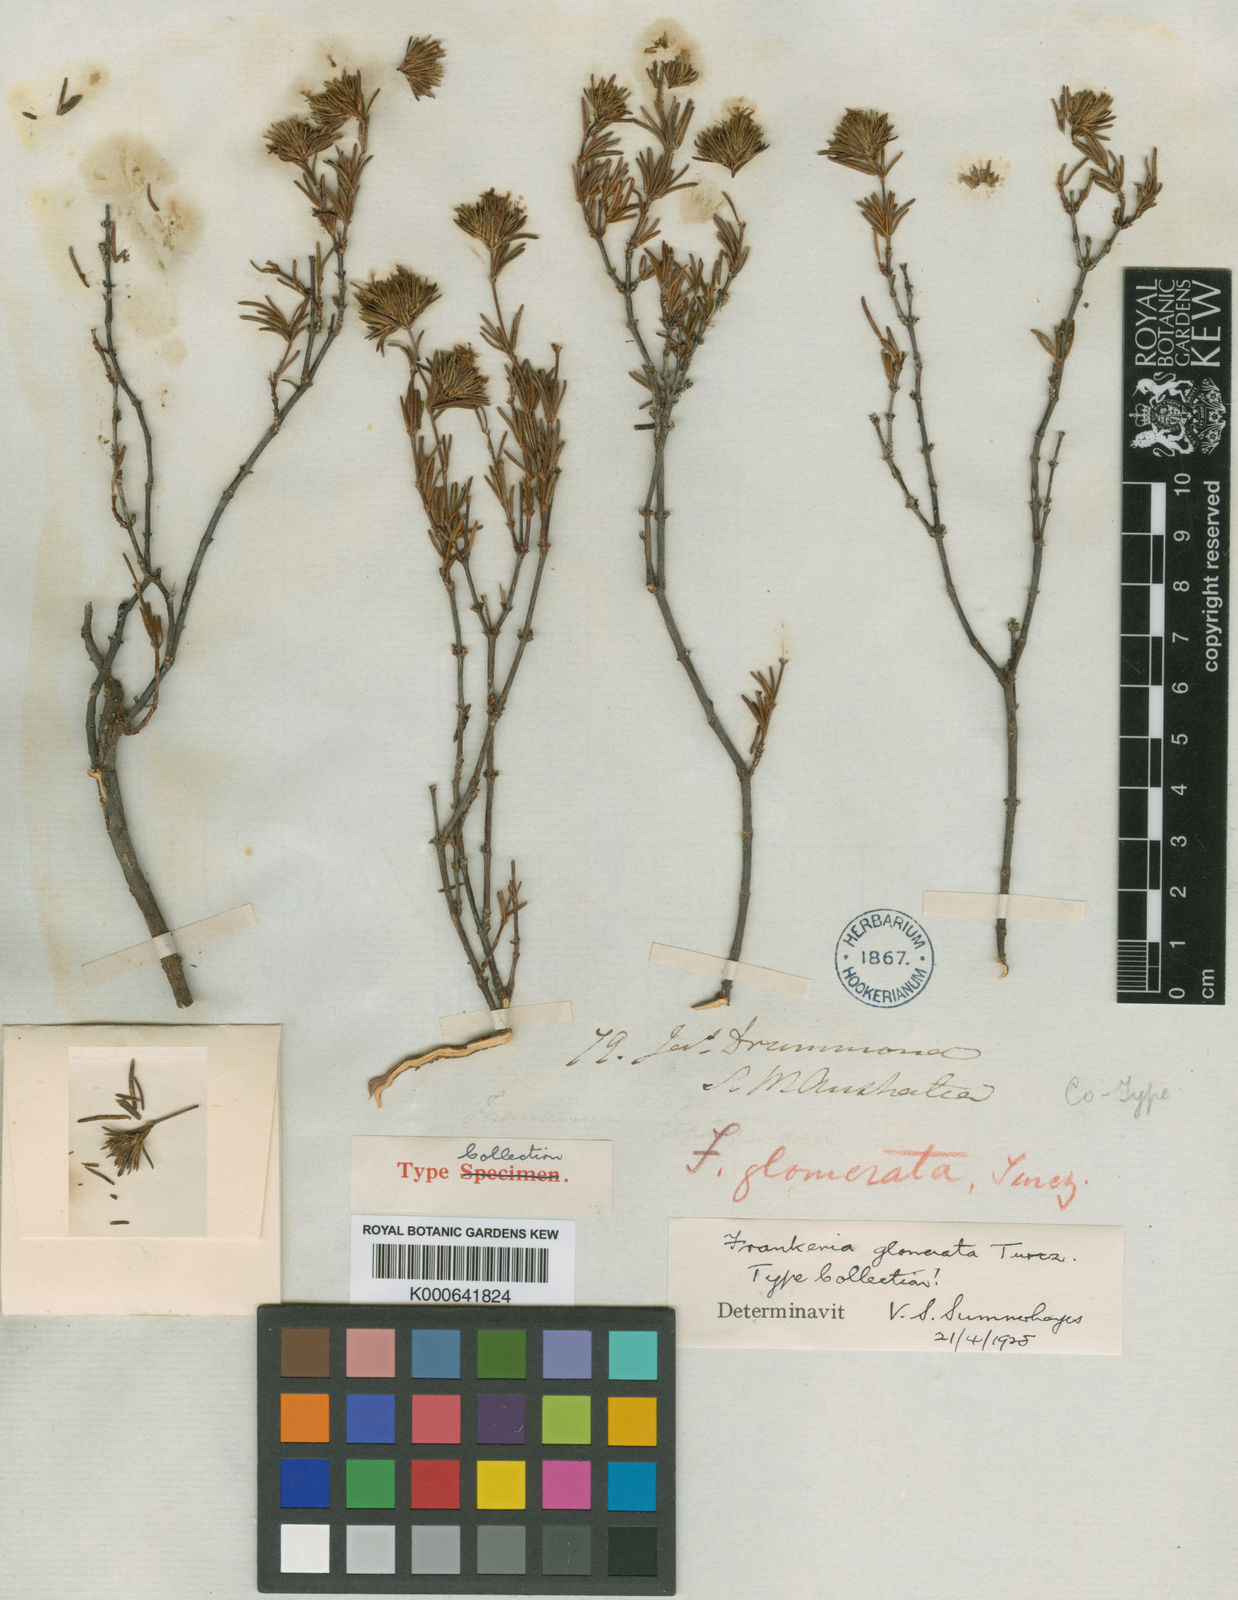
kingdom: Plantae
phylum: Tracheophyta
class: Magnoliopsida
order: Caryophyllales
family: Frankeniaceae
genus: Frankenia
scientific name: Frankenia glomerata
